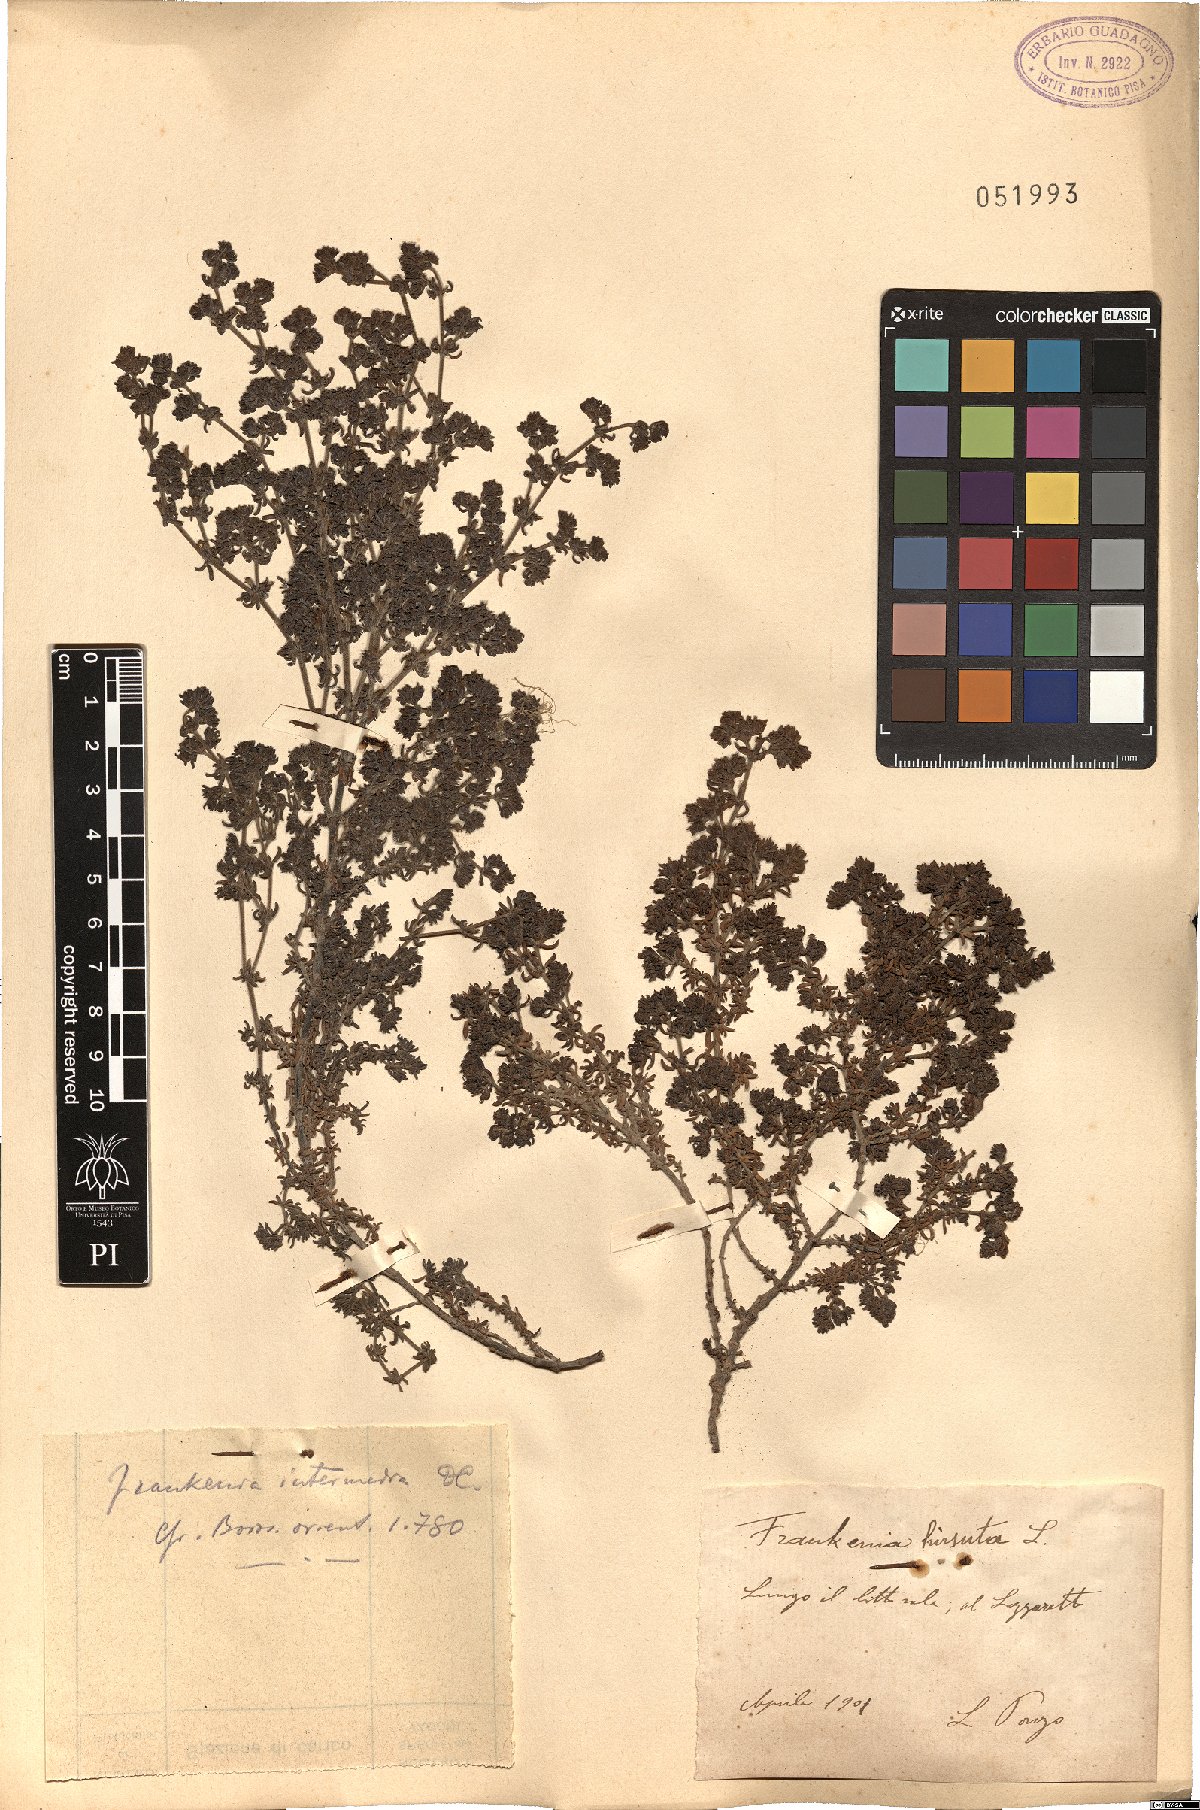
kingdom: Plantae
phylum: Tracheophyta
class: Magnoliopsida
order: Caryophyllales
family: Frankeniaceae
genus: Frankenia
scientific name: Frankenia hirsuta
